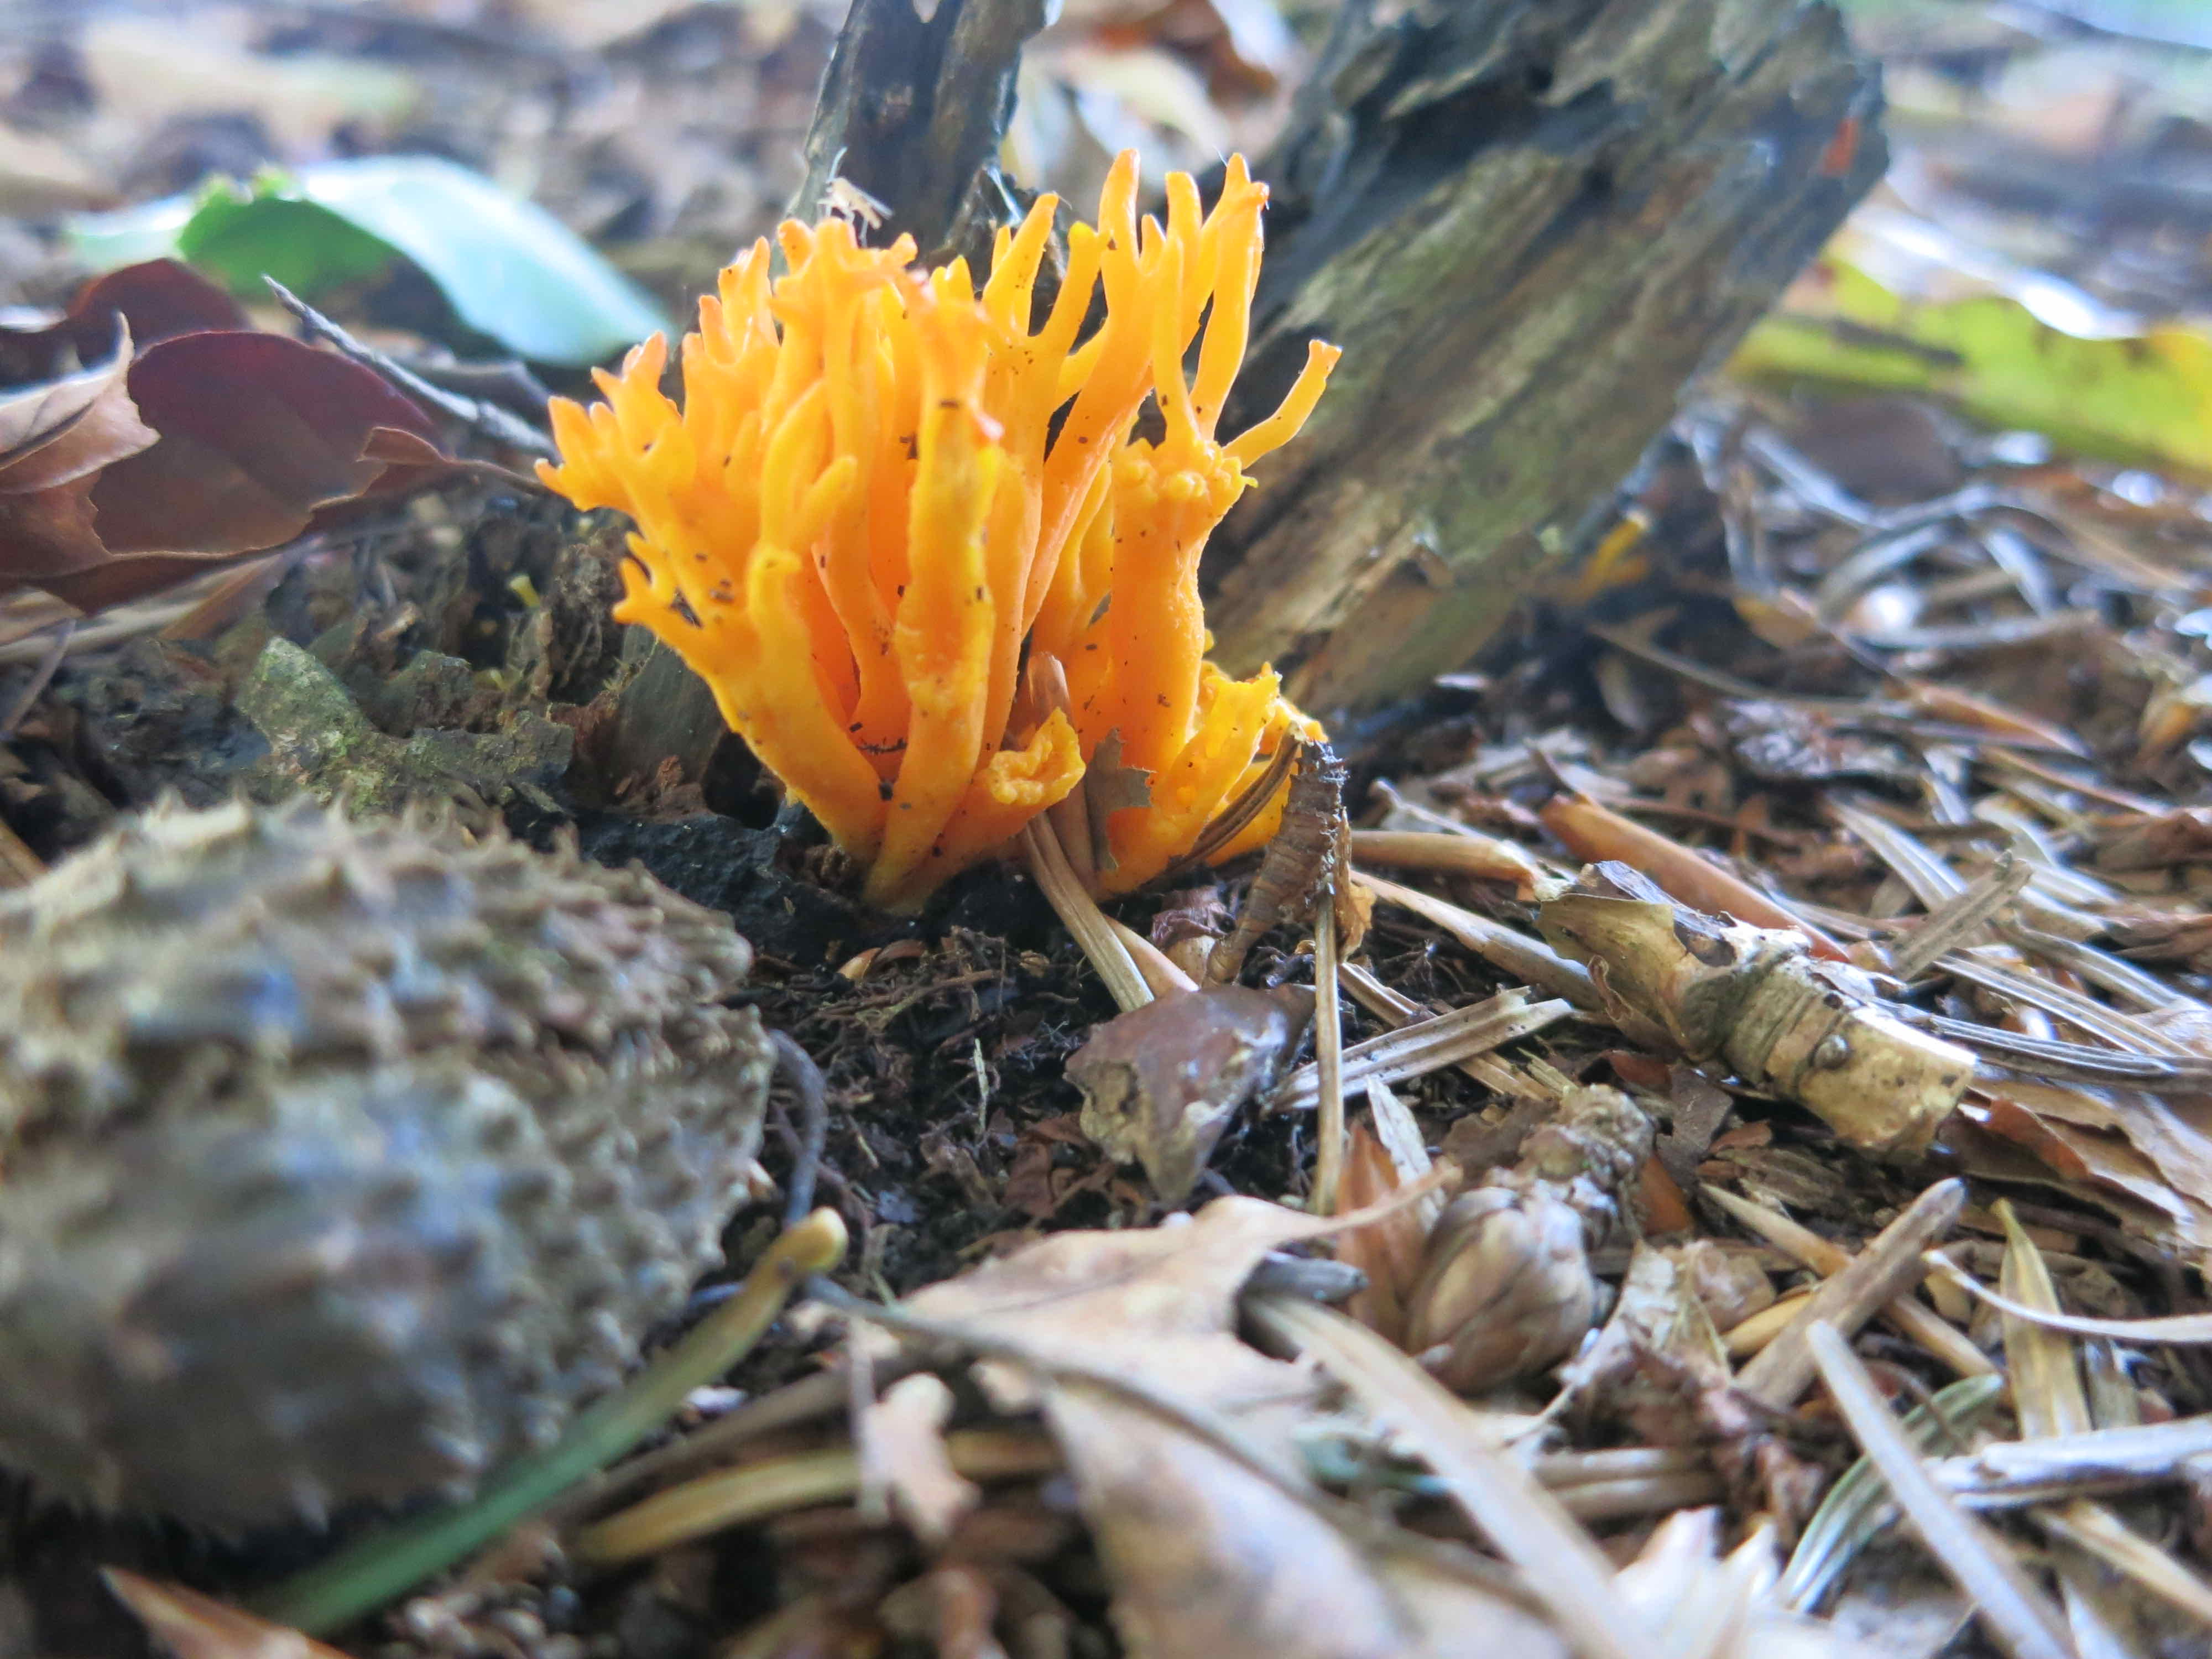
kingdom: Fungi
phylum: Basidiomycota
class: Dacrymycetes
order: Dacrymycetales
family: Dacrymycetaceae
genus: Calocera
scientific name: Calocera viscosa
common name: almindelig guldgaffel
